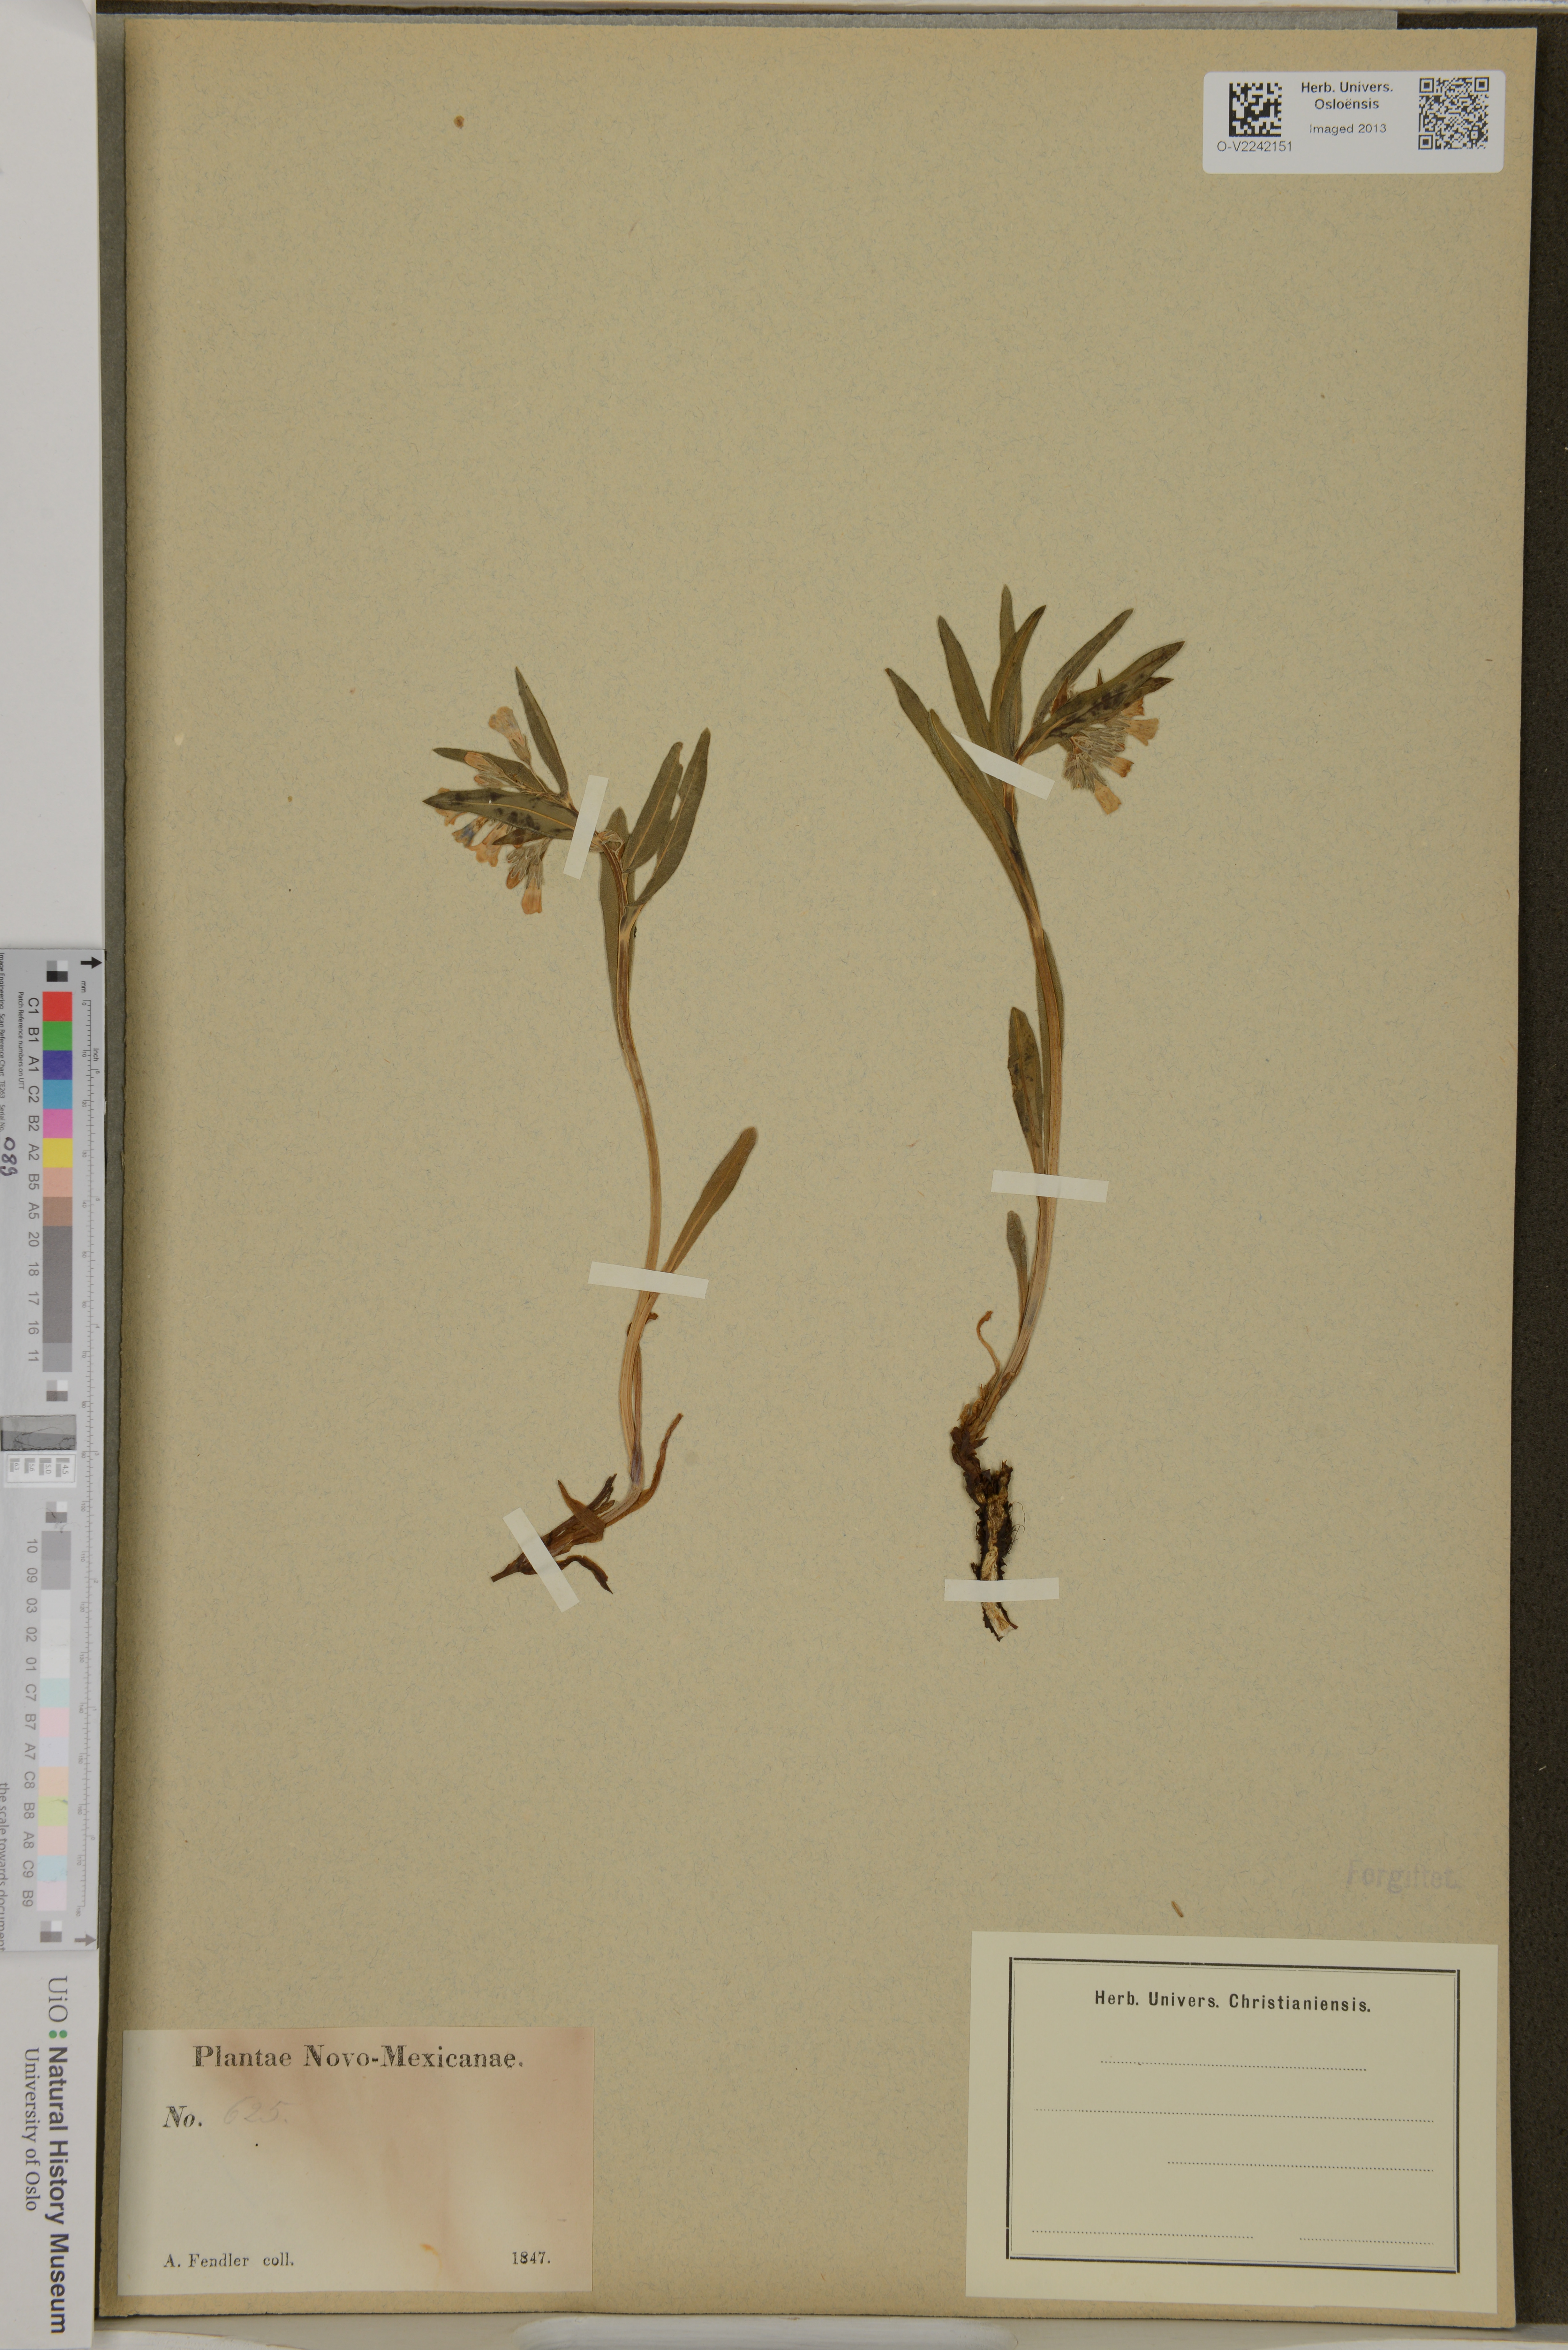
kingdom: Plantae
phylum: Tracheophyta
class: Magnoliopsida
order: Boraginales
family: Boraginaceae
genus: Pulmonaria
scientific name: Pulmonaria
